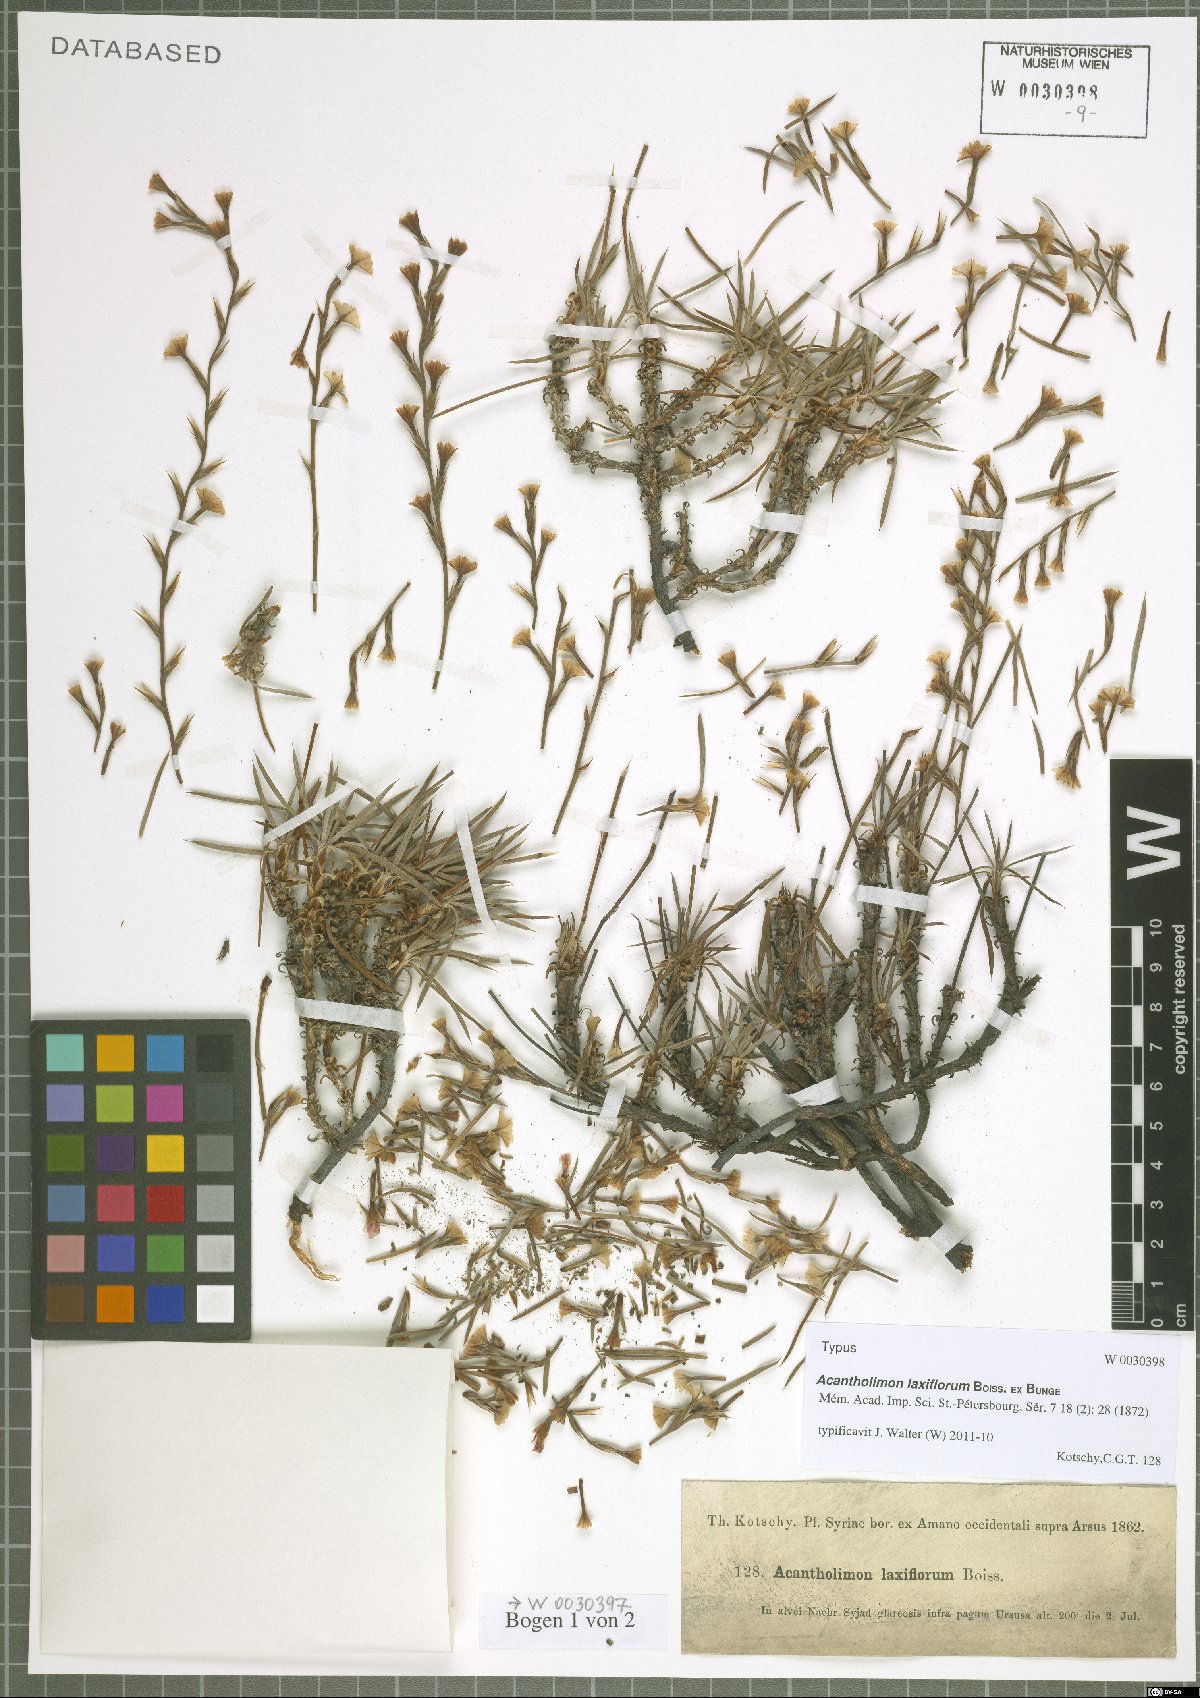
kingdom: Plantae
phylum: Tracheophyta
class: Magnoliopsida
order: Caryophyllales
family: Plumbaginaceae
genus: Acantholimon
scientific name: Acantholimon laxiflorum
